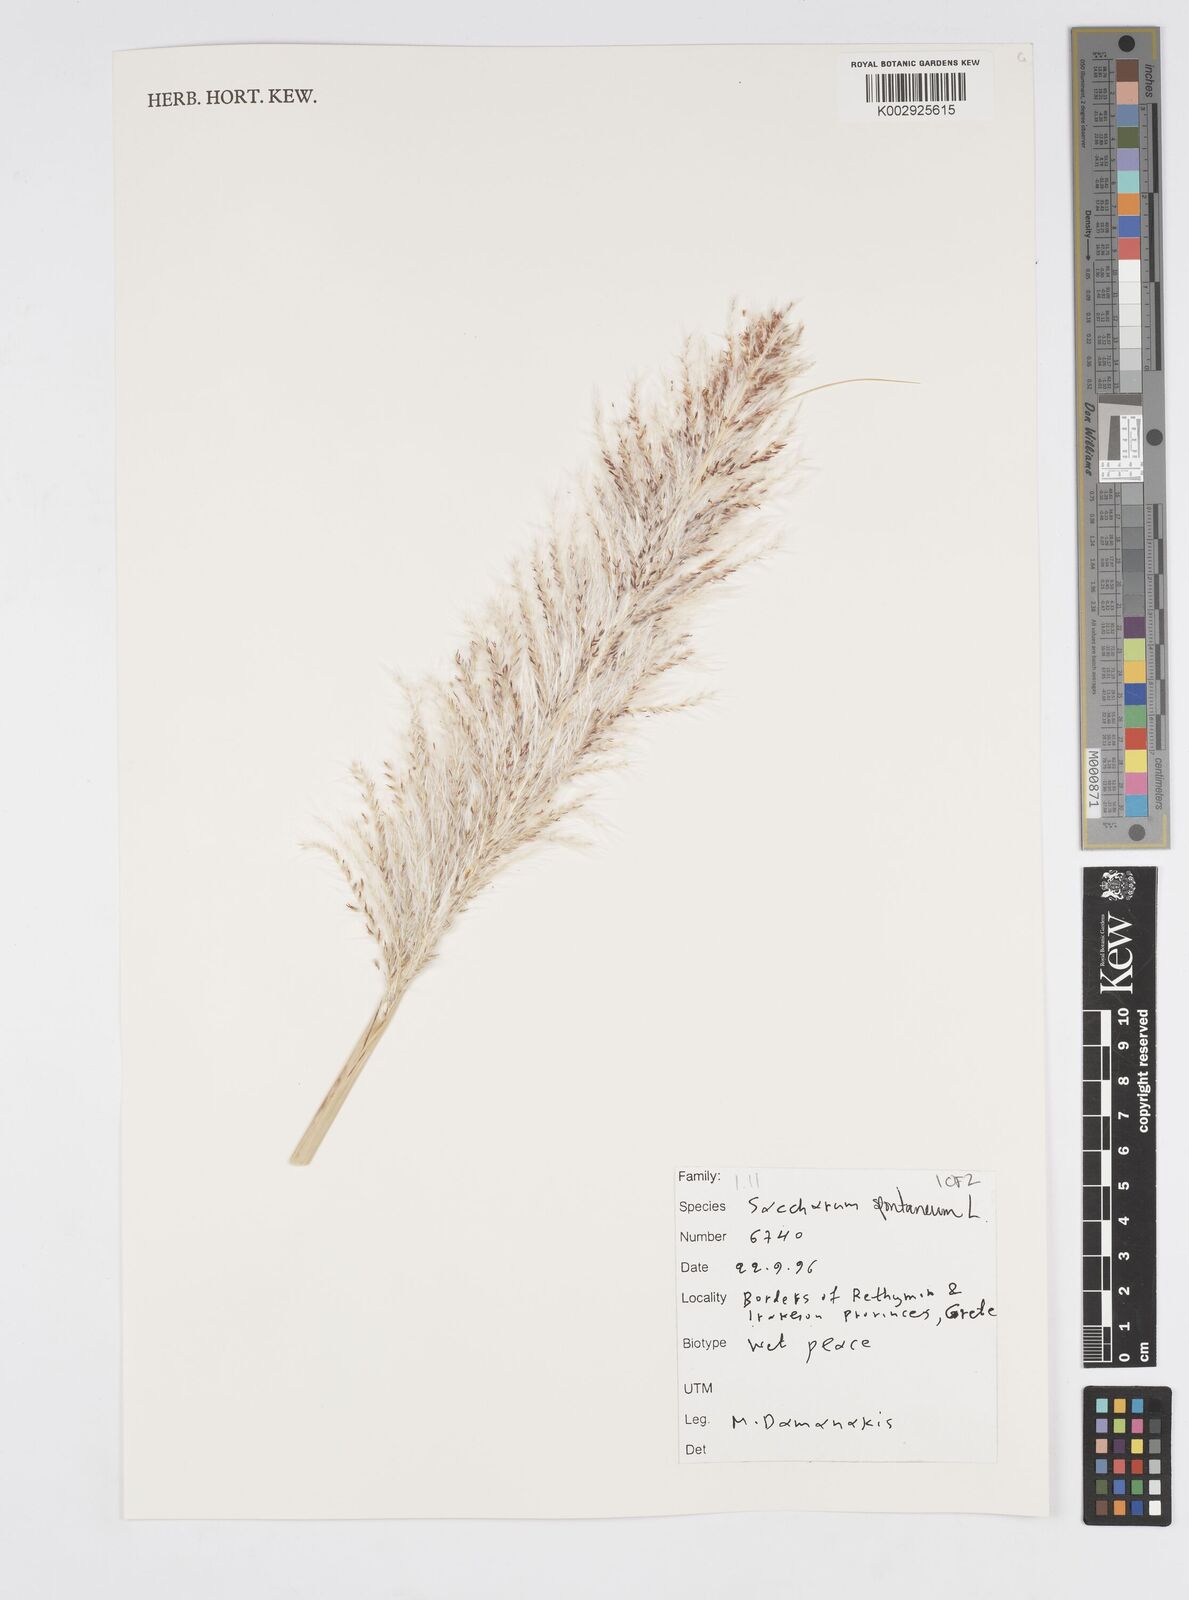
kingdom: Plantae
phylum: Tracheophyta
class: Liliopsida
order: Poales
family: Poaceae
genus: Saccharum
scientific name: Saccharum spontaneum
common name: Wild sugarcane
